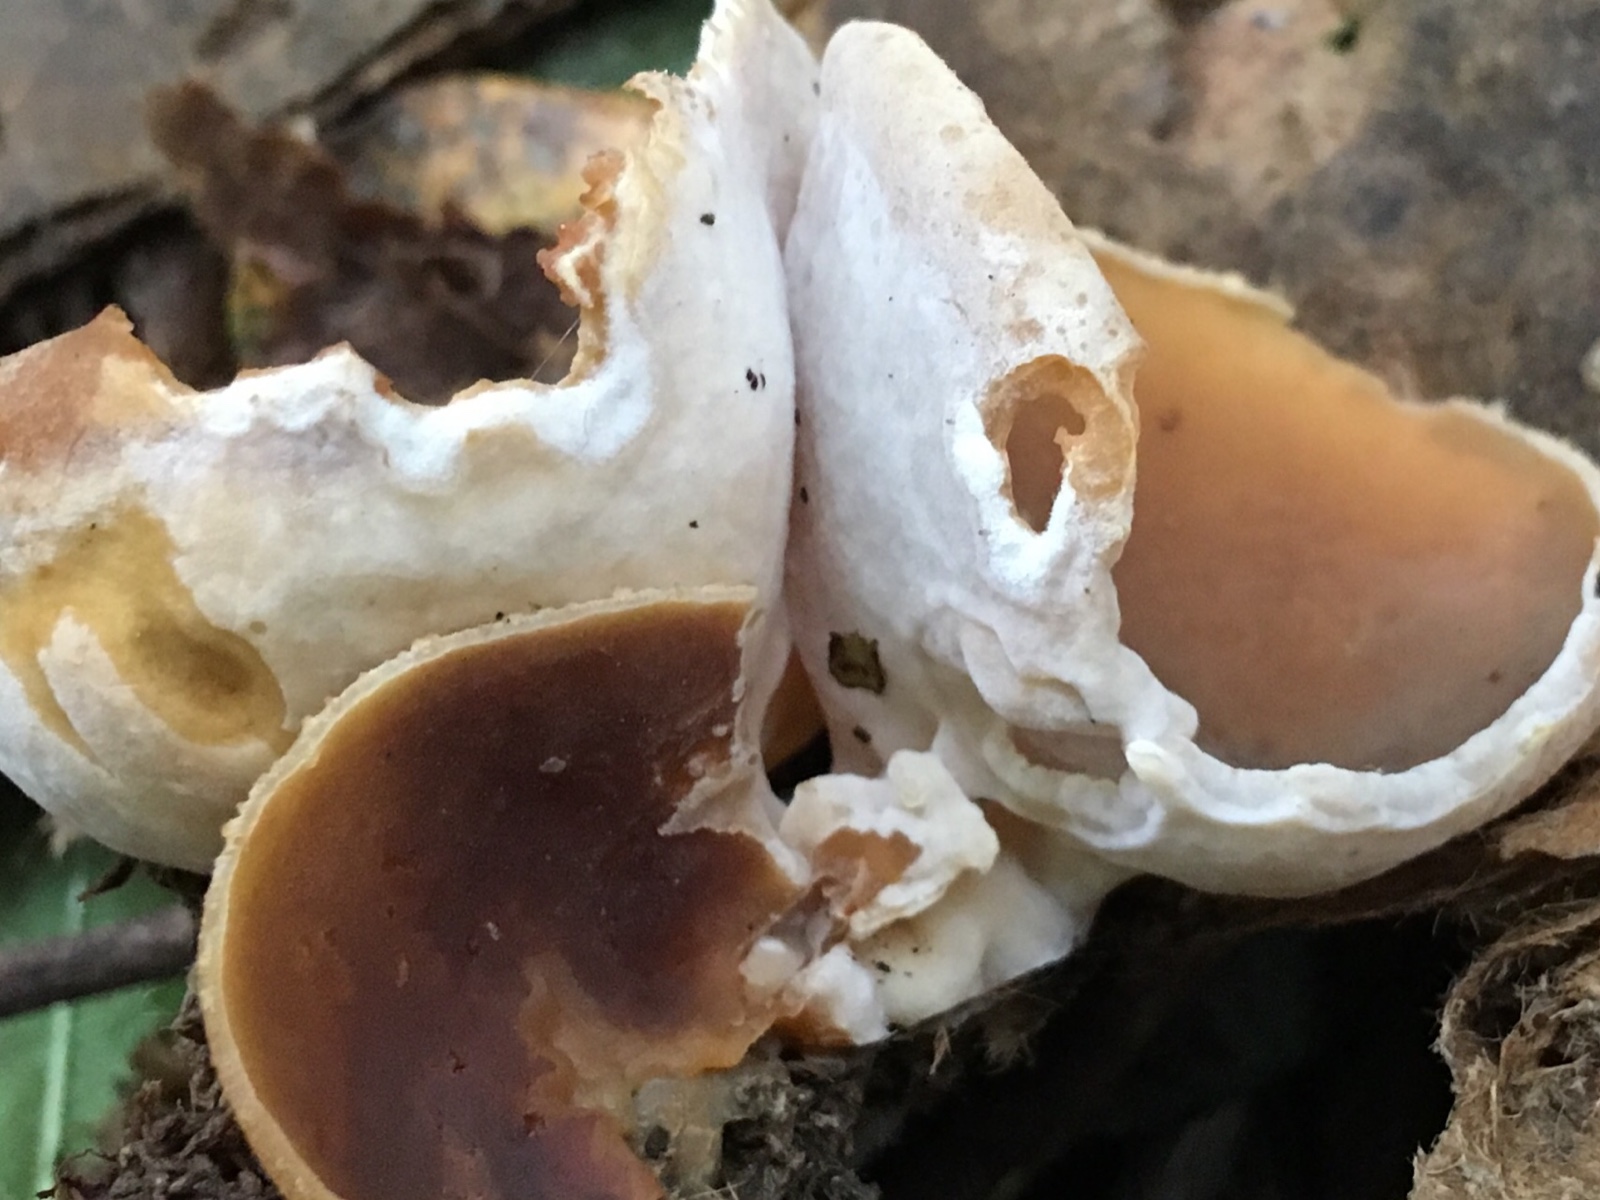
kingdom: Fungi
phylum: Ascomycota
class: Pezizomycetes
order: Pezizales
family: Pezizaceae
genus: Peziza
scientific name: Peziza varia
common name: Ved-bægersvamp
